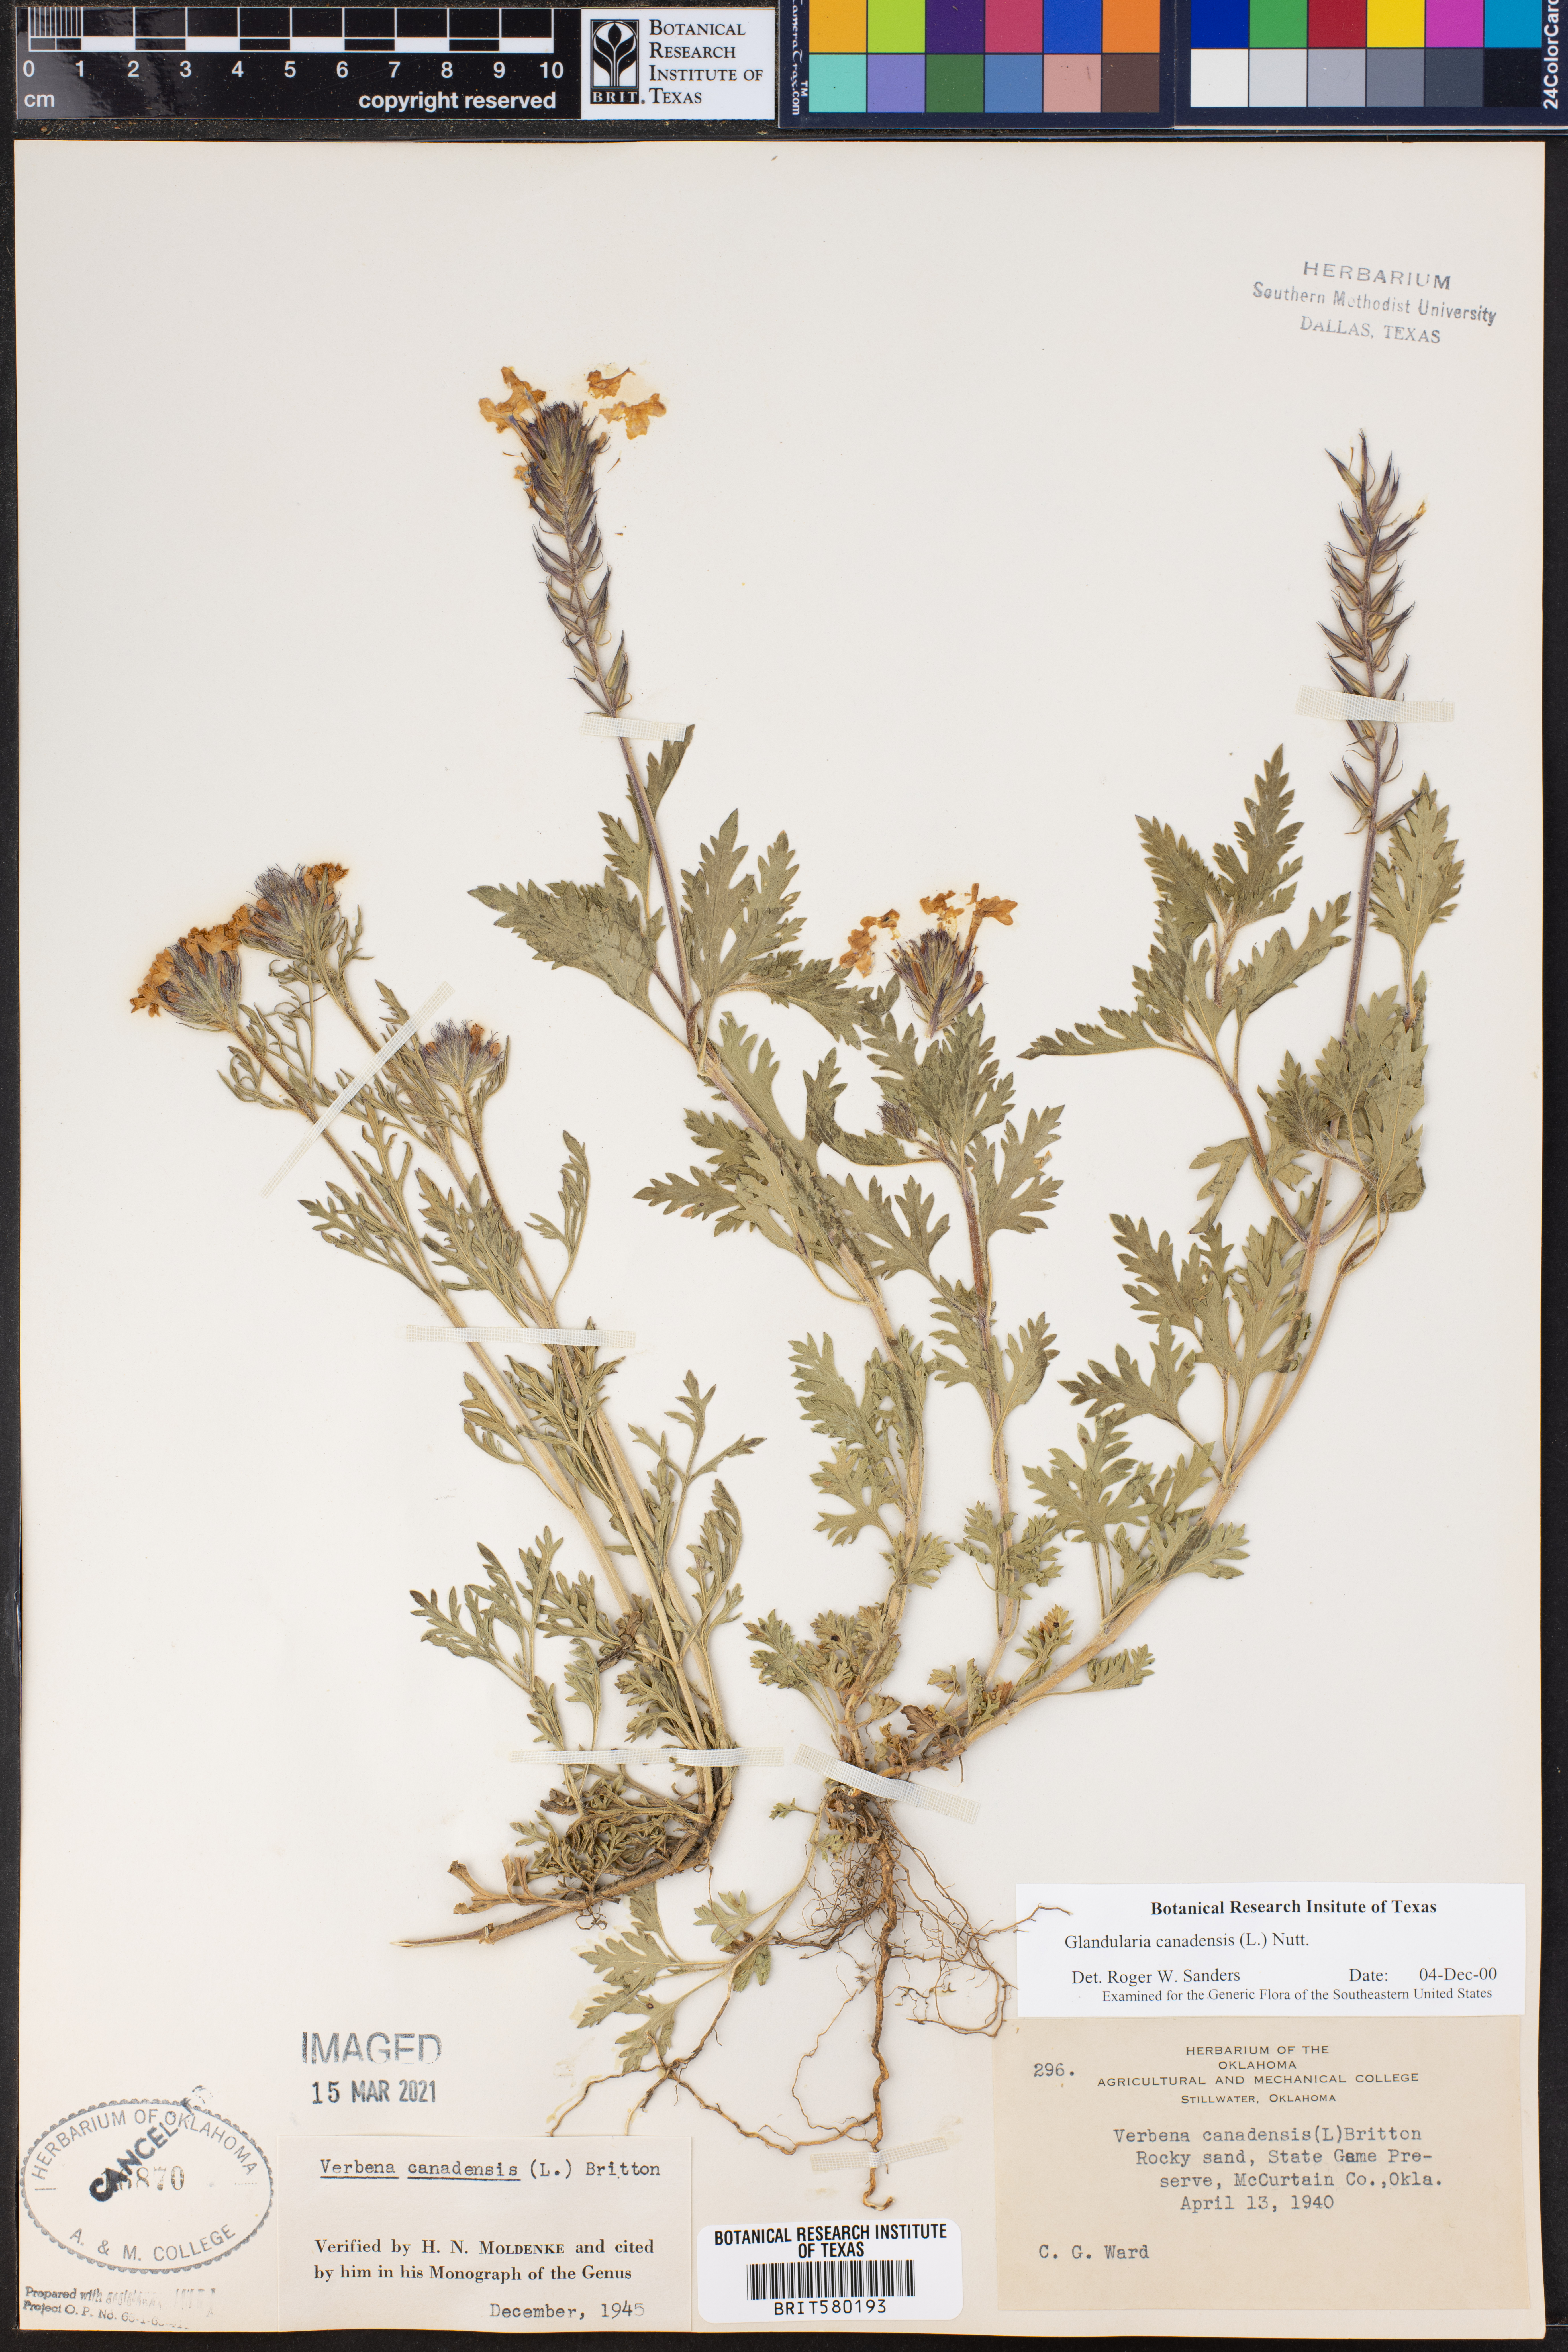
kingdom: Plantae
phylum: Tracheophyta
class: Magnoliopsida
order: Lamiales
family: Verbenaceae
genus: Verbena
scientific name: Verbena canadensis
